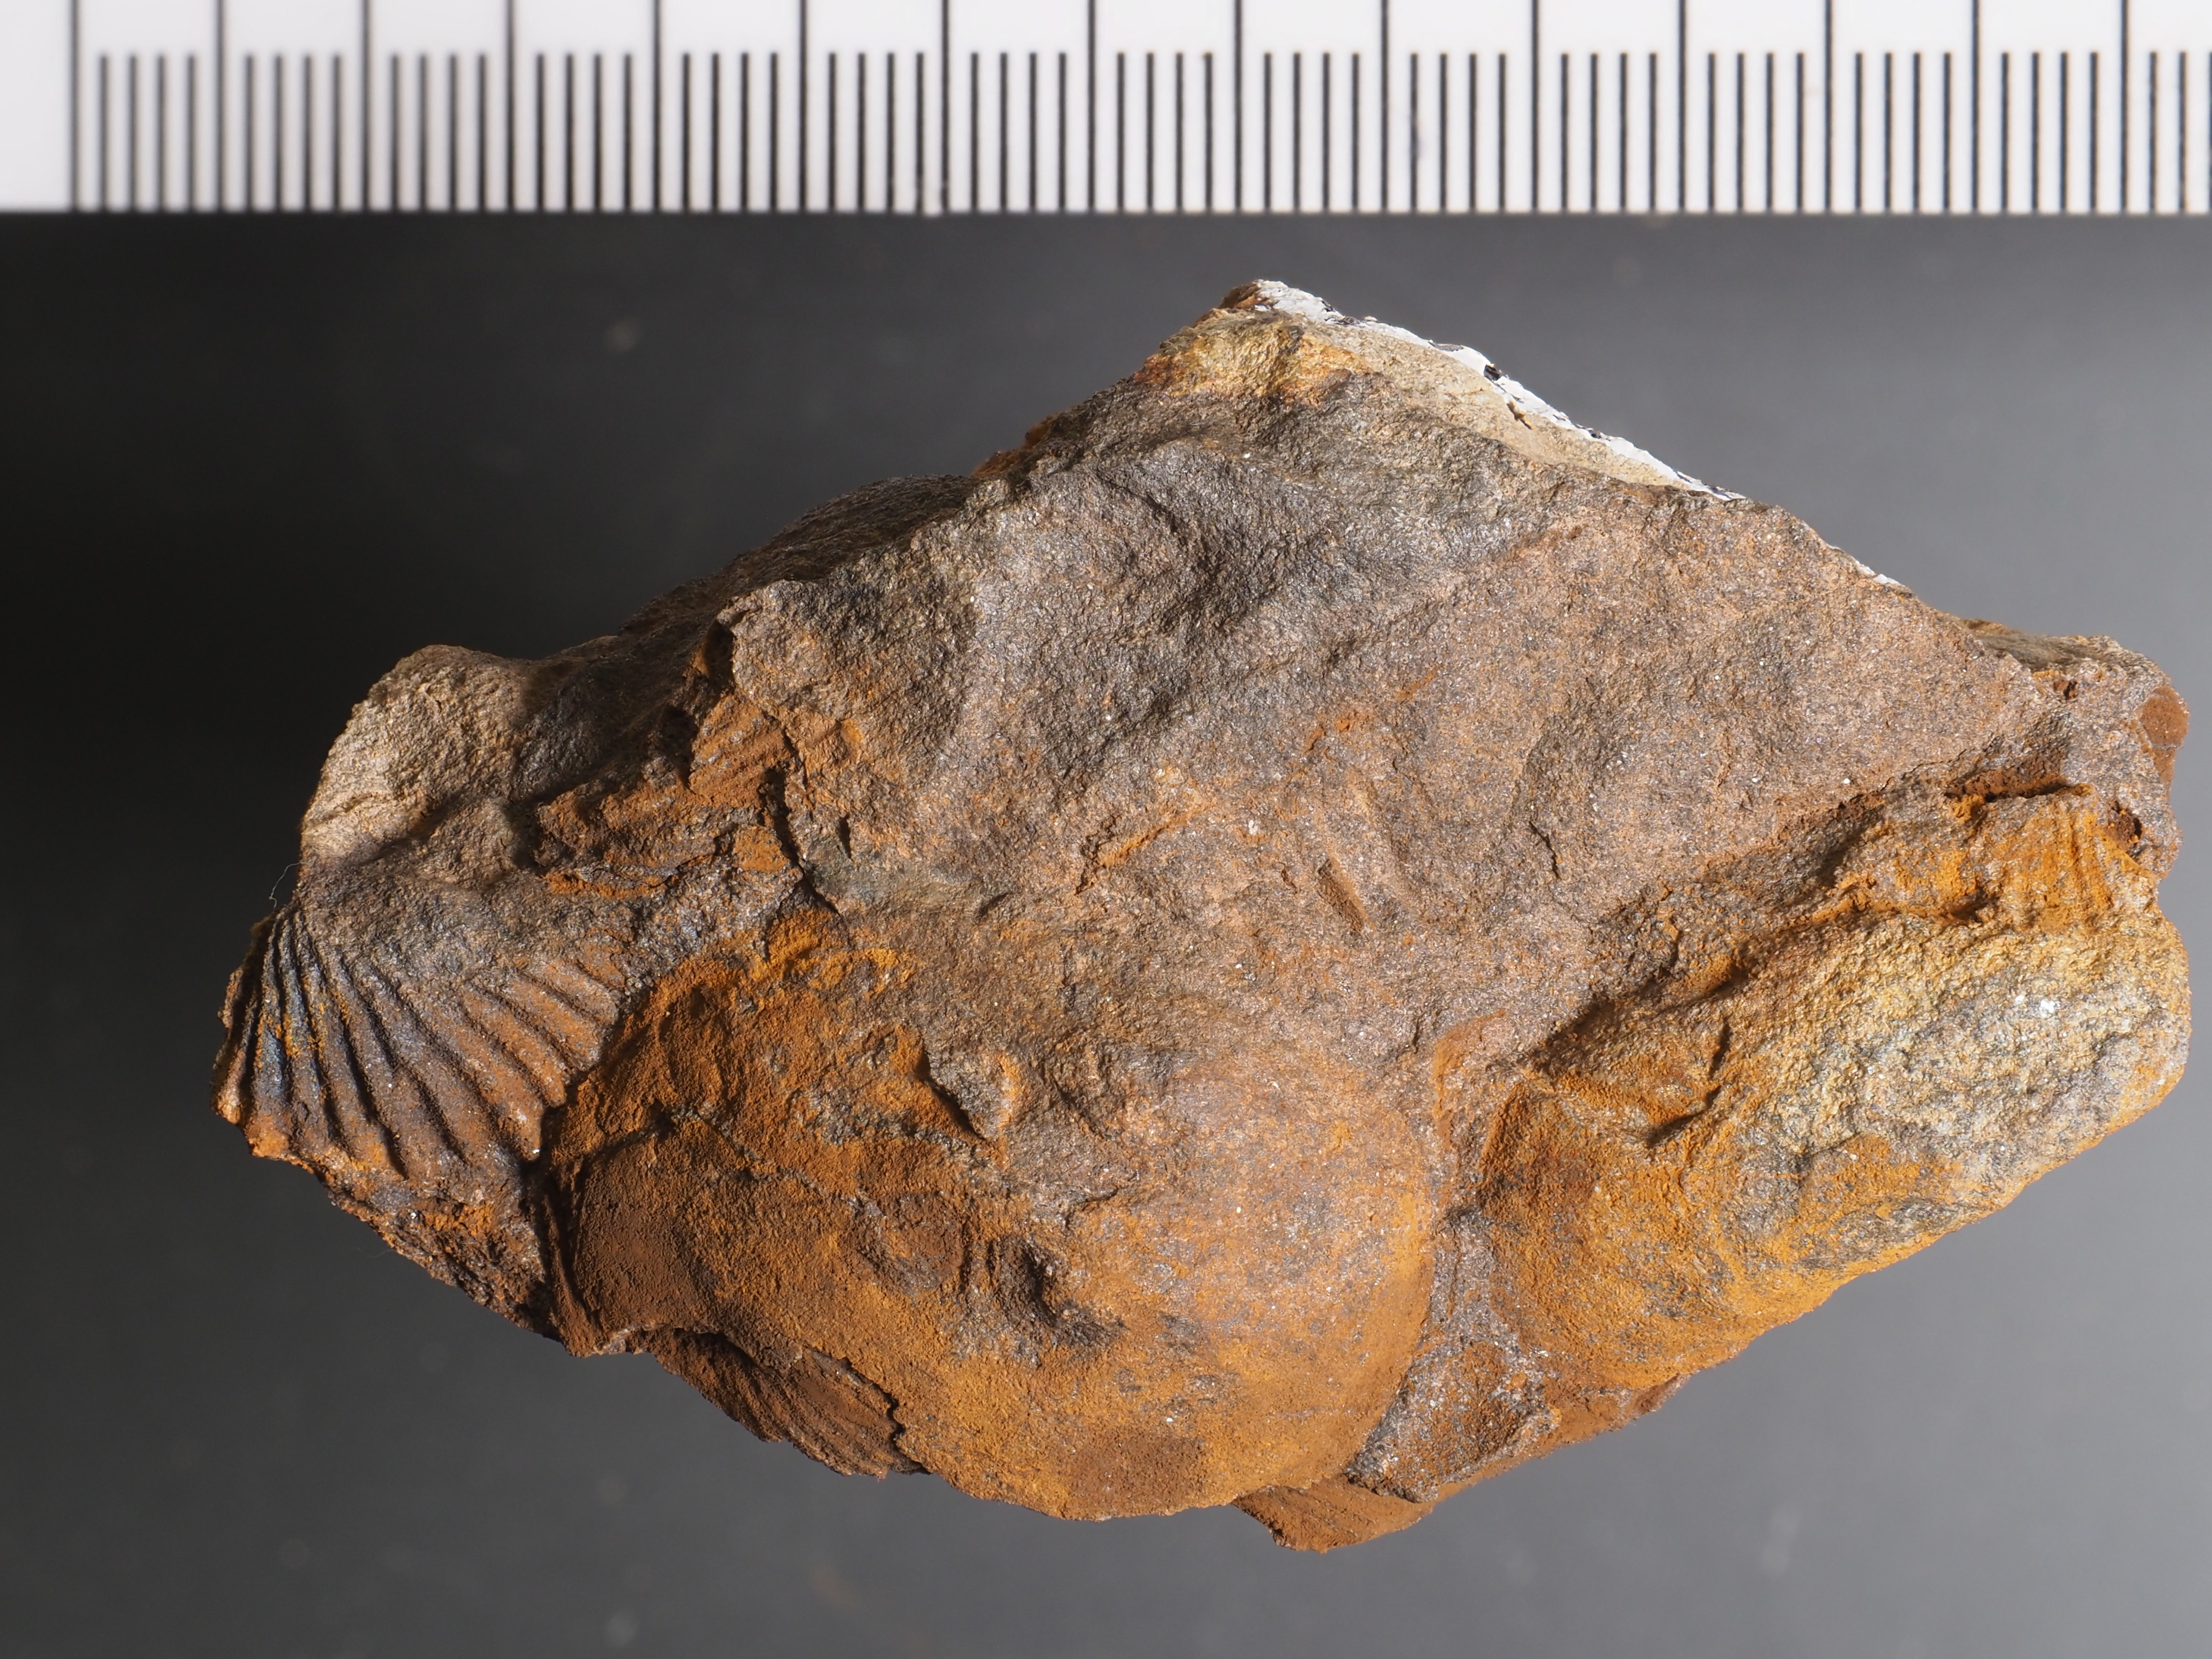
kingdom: Animalia
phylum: Brachiopoda
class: Craniata
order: Craniida
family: Craniidae
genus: Petrocrania
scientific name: Petrocrania
